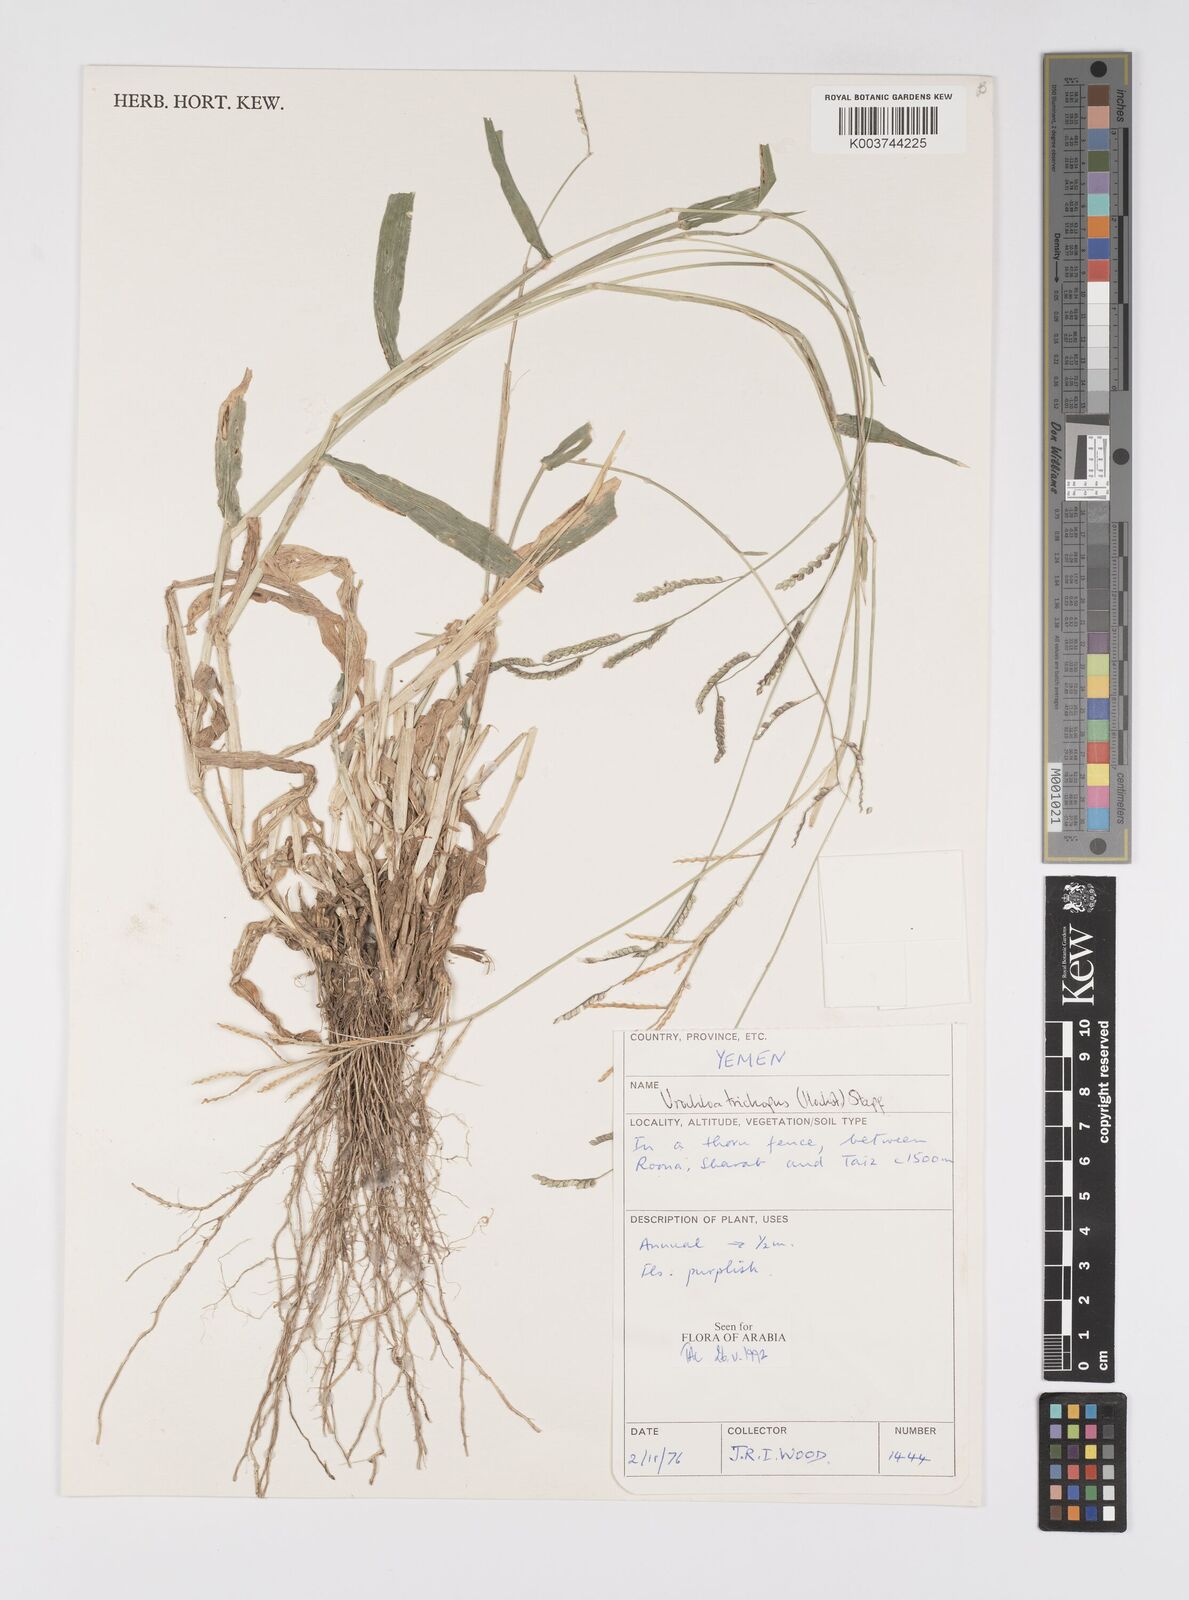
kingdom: Plantae
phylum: Tracheophyta
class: Liliopsida
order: Poales
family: Poaceae
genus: Urochloa
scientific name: Urochloa trichopus
